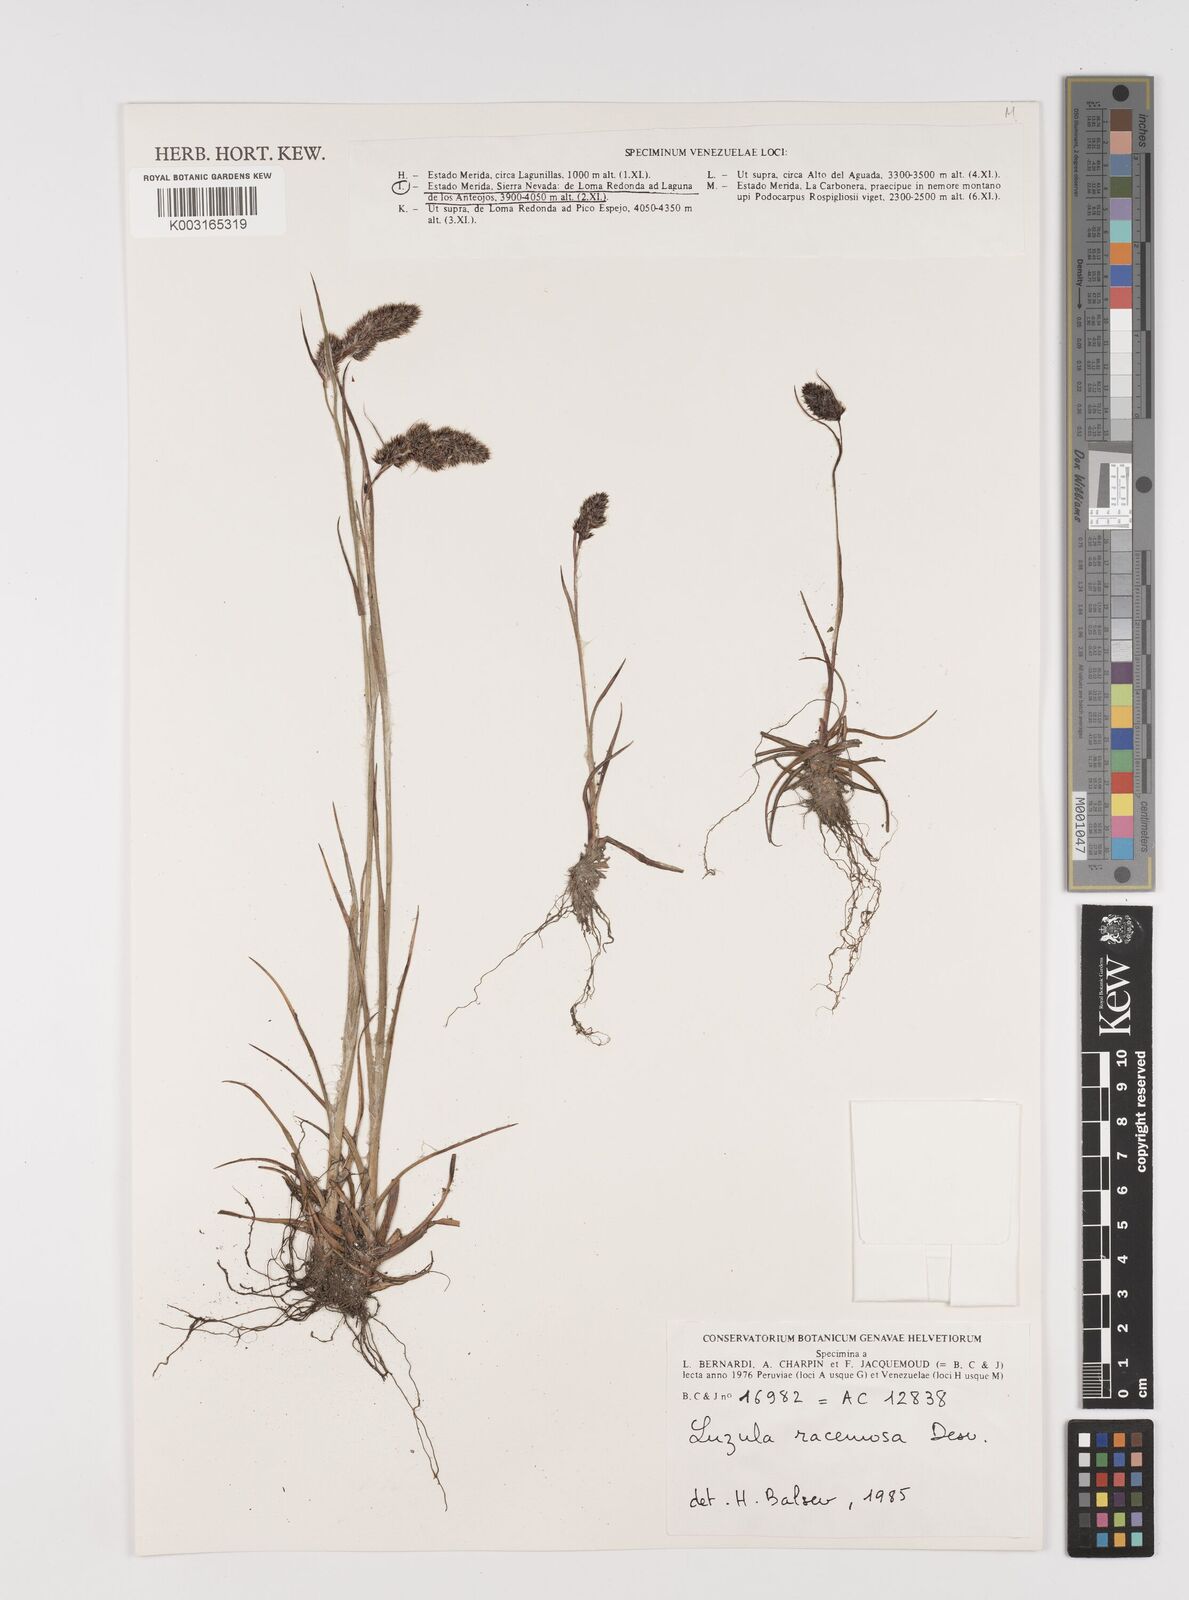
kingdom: Plantae
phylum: Tracheophyta
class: Liliopsida
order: Poales
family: Juncaceae
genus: Luzula
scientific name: Luzula racemosa
